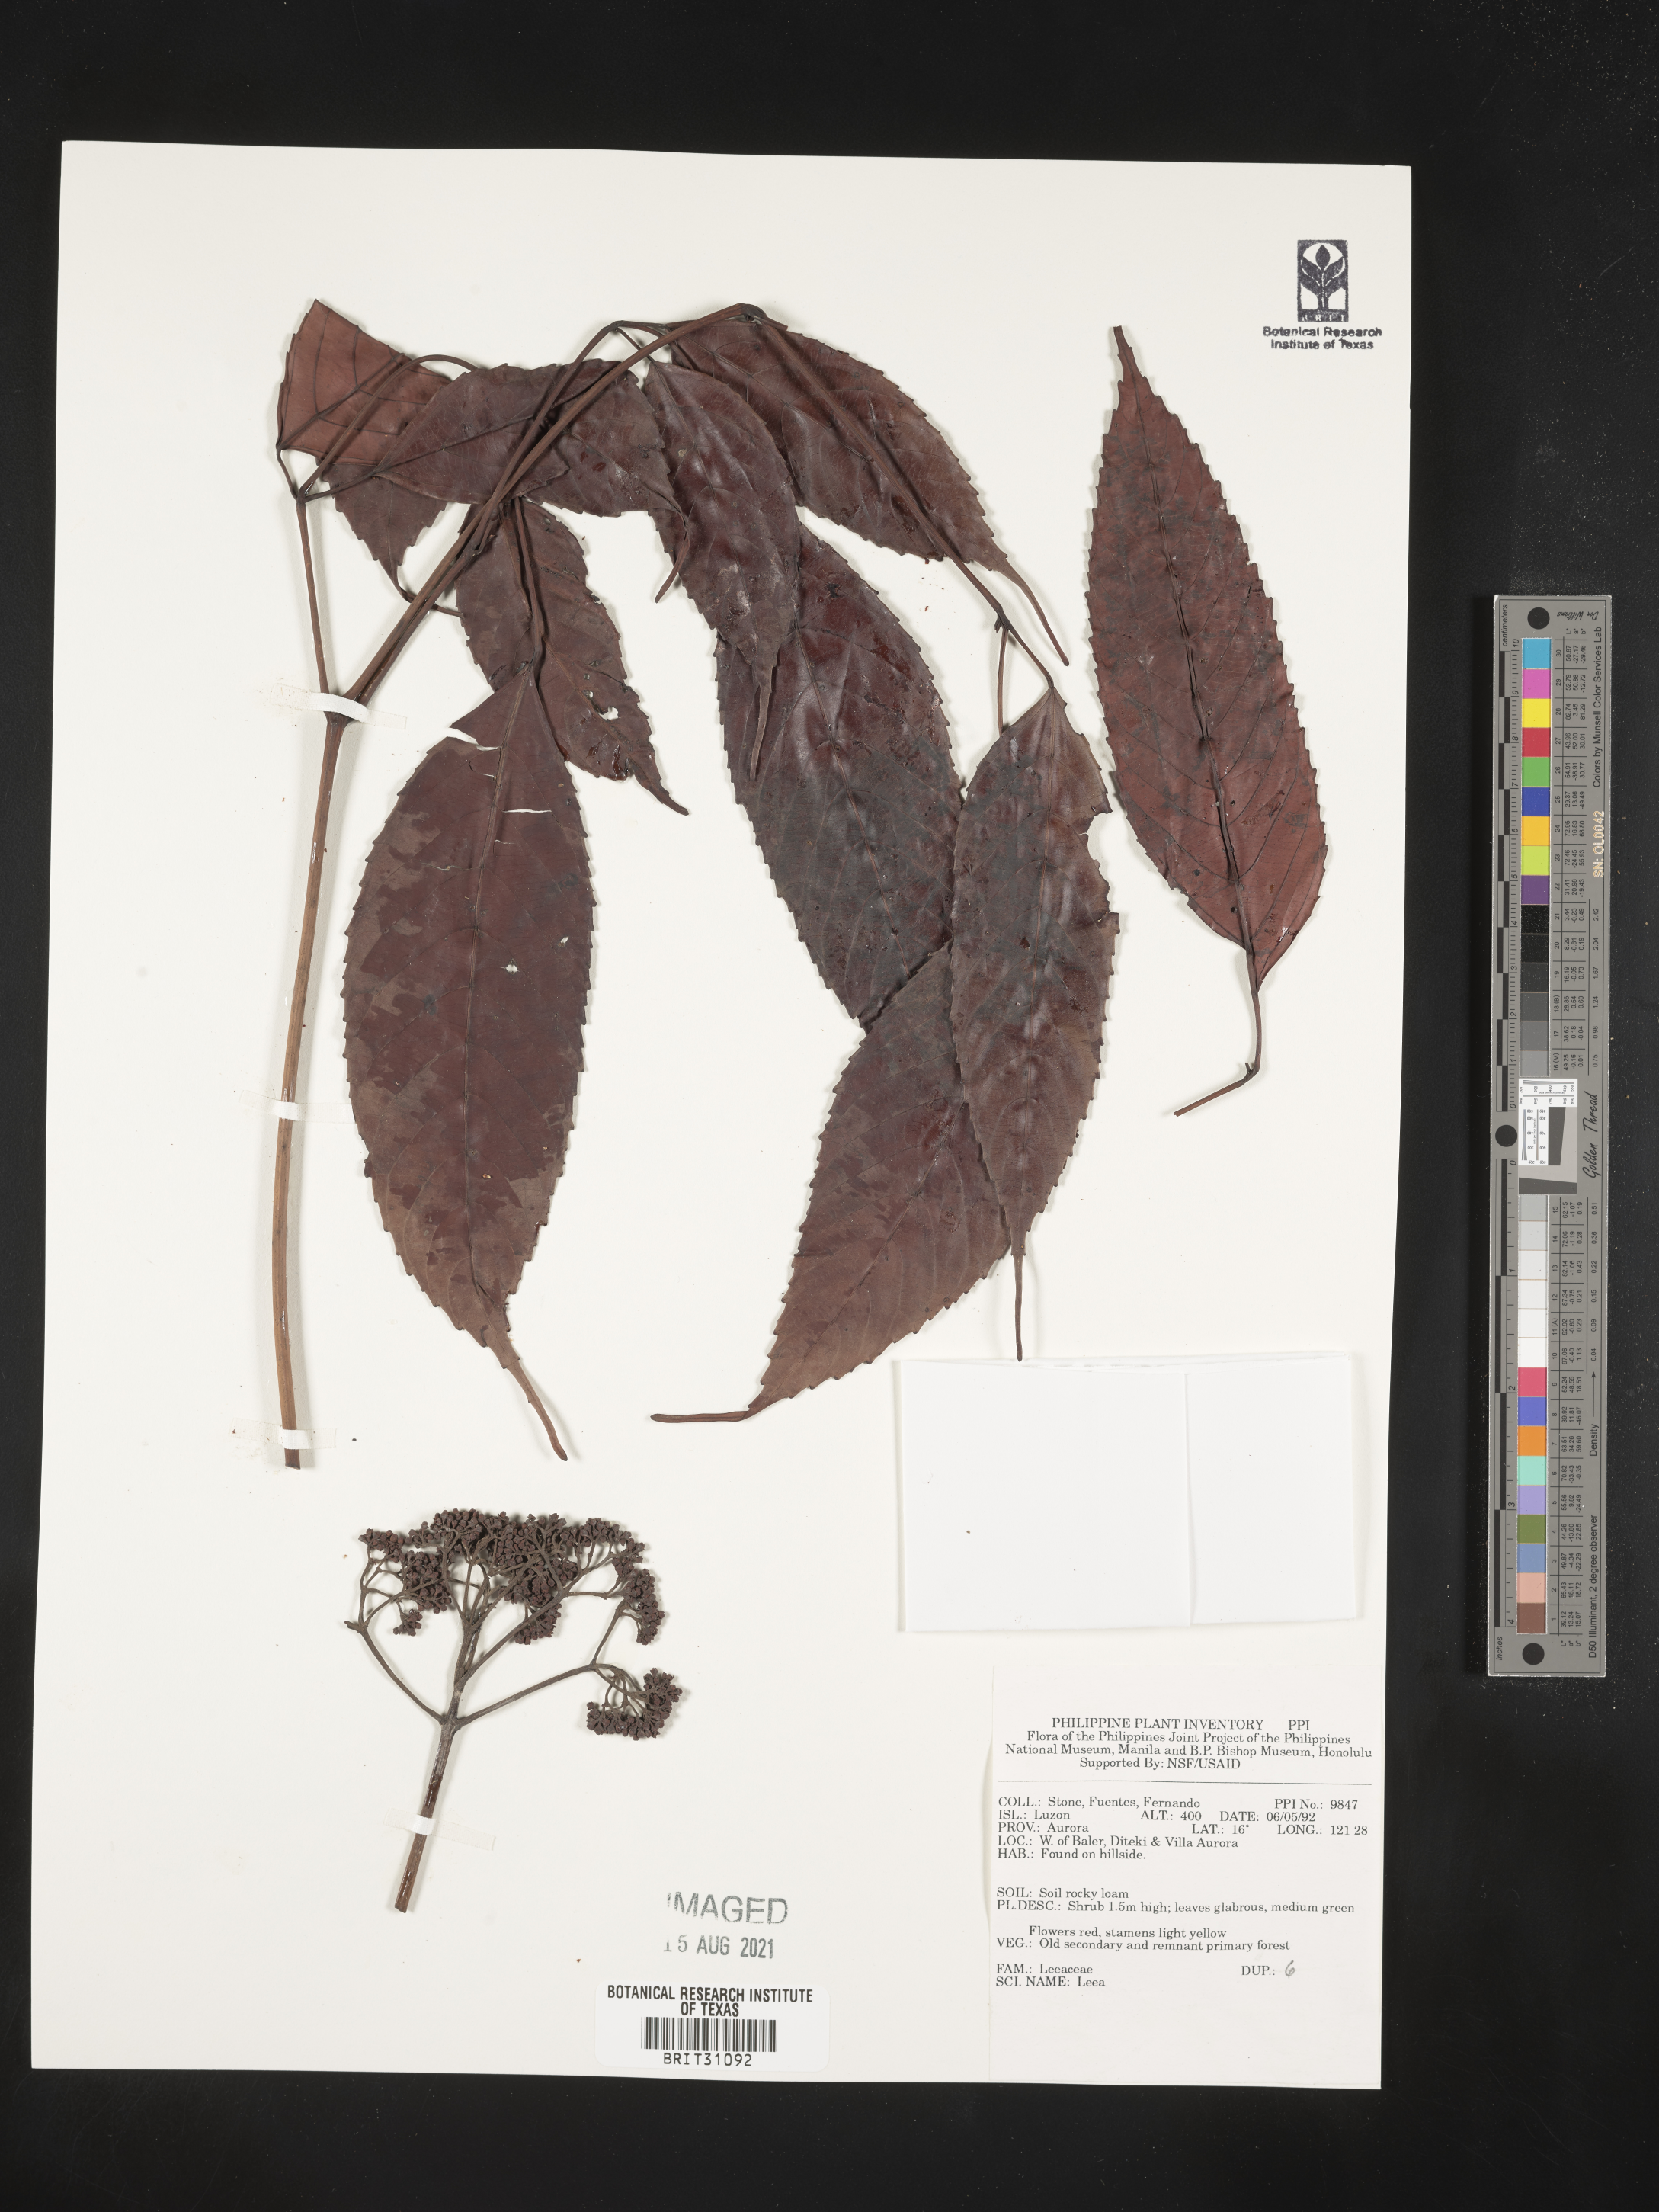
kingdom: Plantae
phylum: Tracheophyta
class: Magnoliopsida
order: Vitales
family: Vitaceae
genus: Leea
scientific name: Leea
